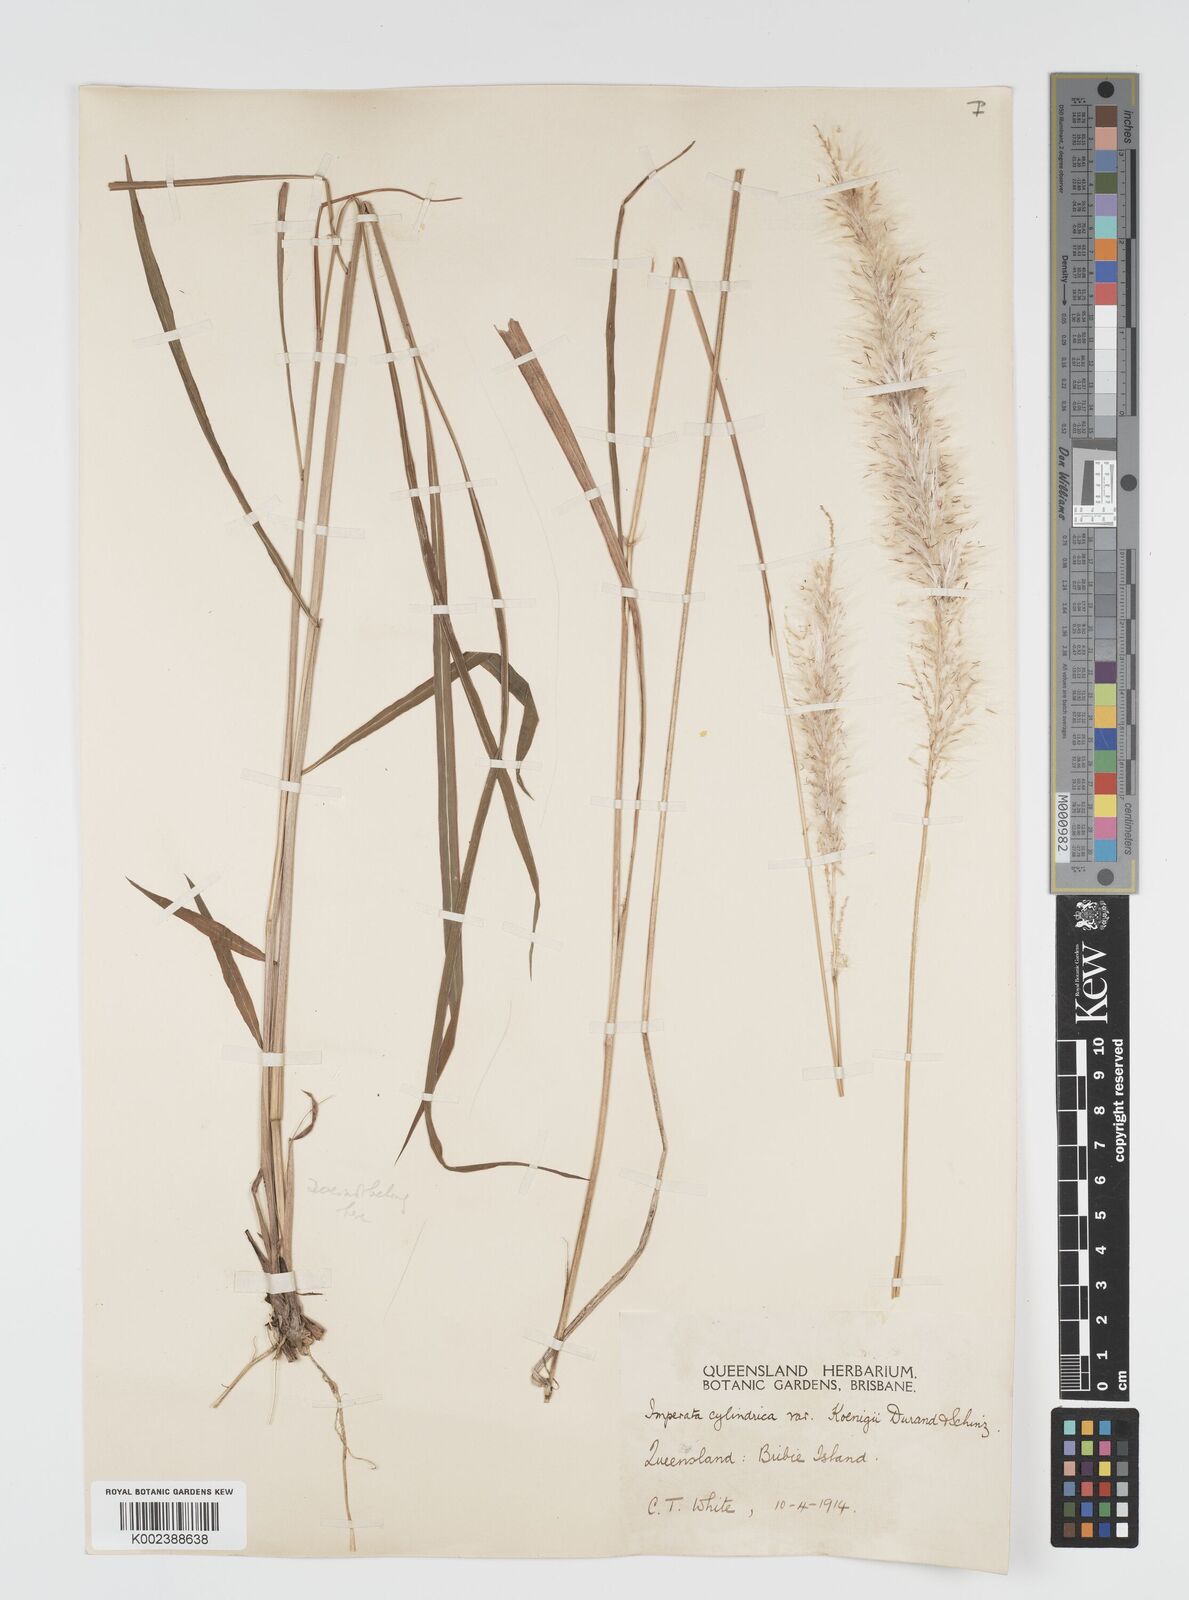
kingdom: Plantae
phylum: Tracheophyta
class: Liliopsida
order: Poales
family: Poaceae
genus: Imperata
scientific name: Imperata cylindrica
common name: Cogongrass
